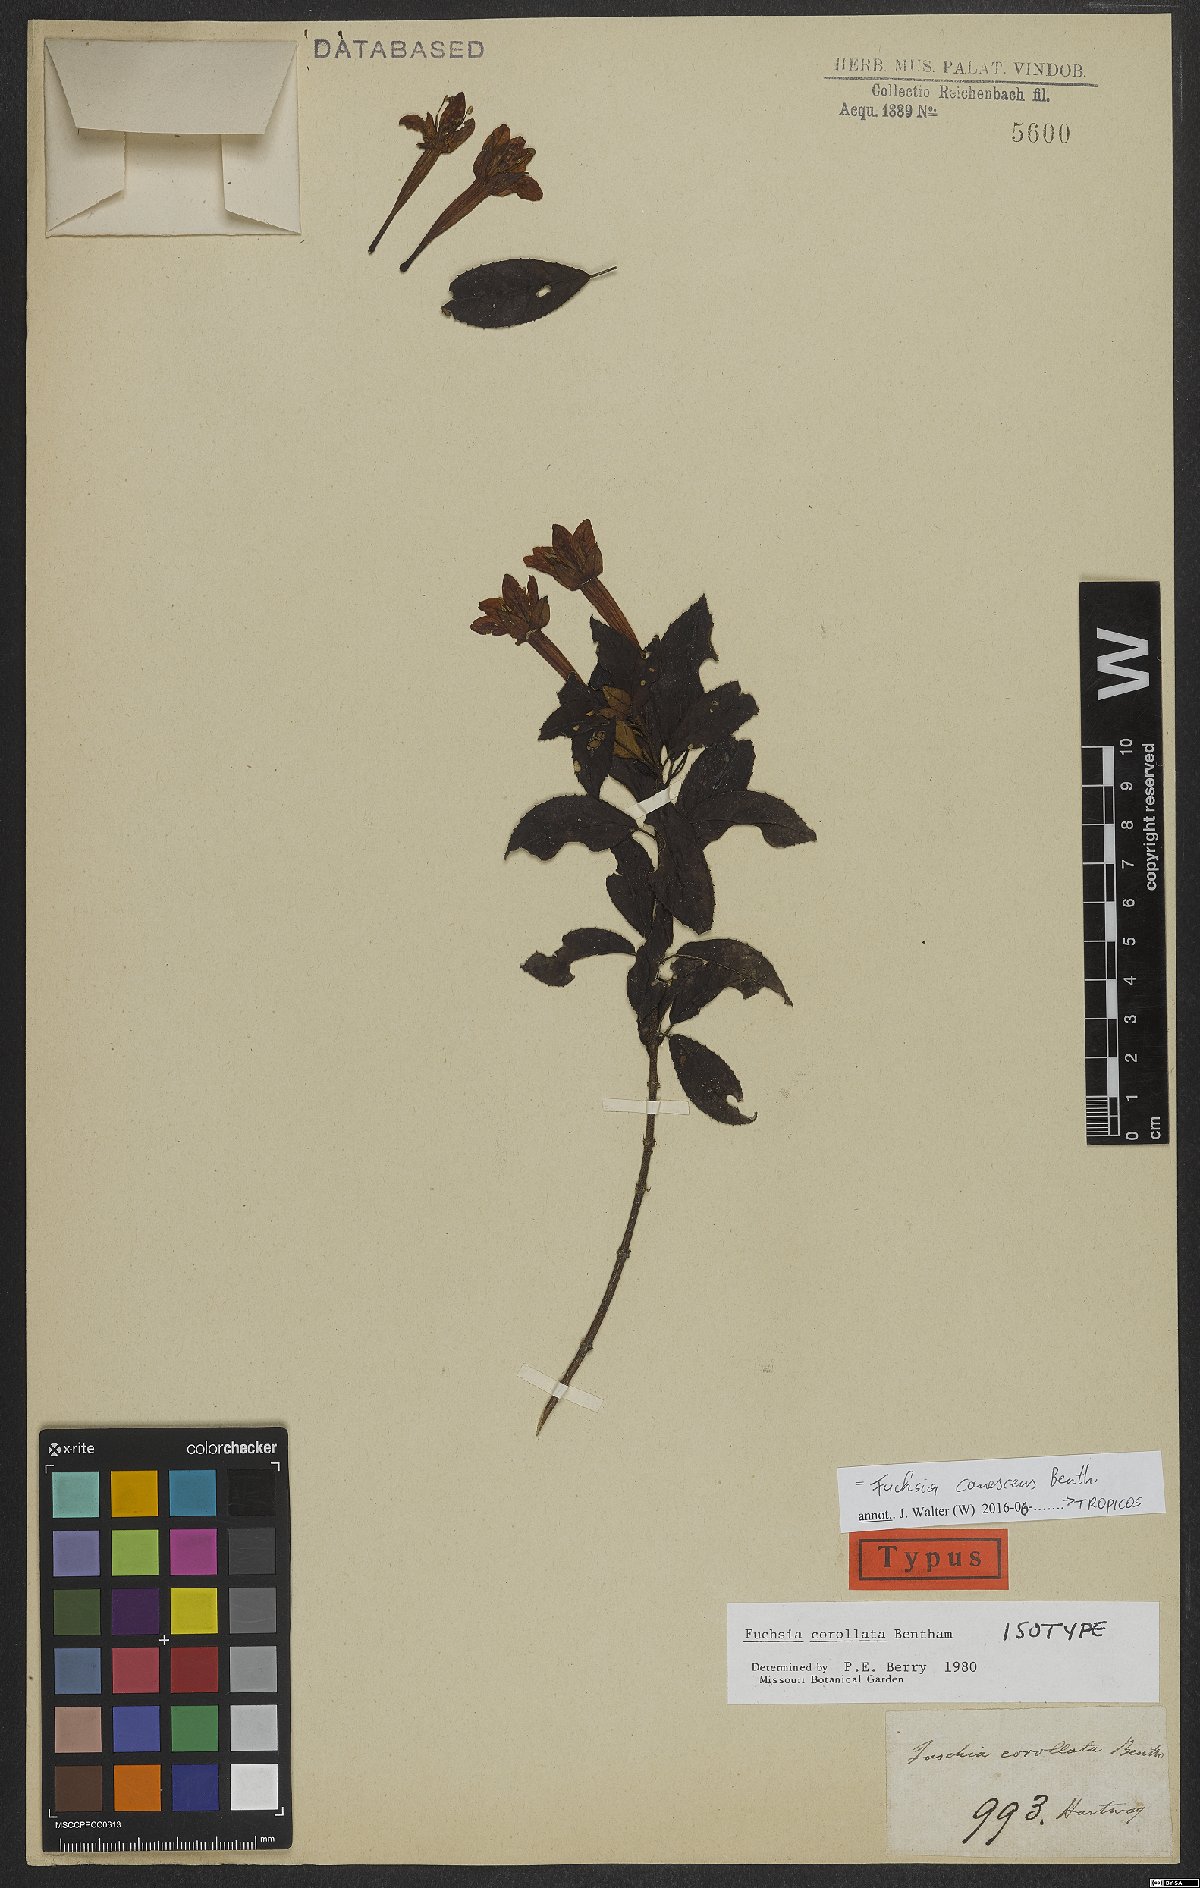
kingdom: Plantae
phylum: Tracheophyta
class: Magnoliopsida
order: Myrtales
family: Onagraceae
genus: Fuchsia
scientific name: Fuchsia canescens
